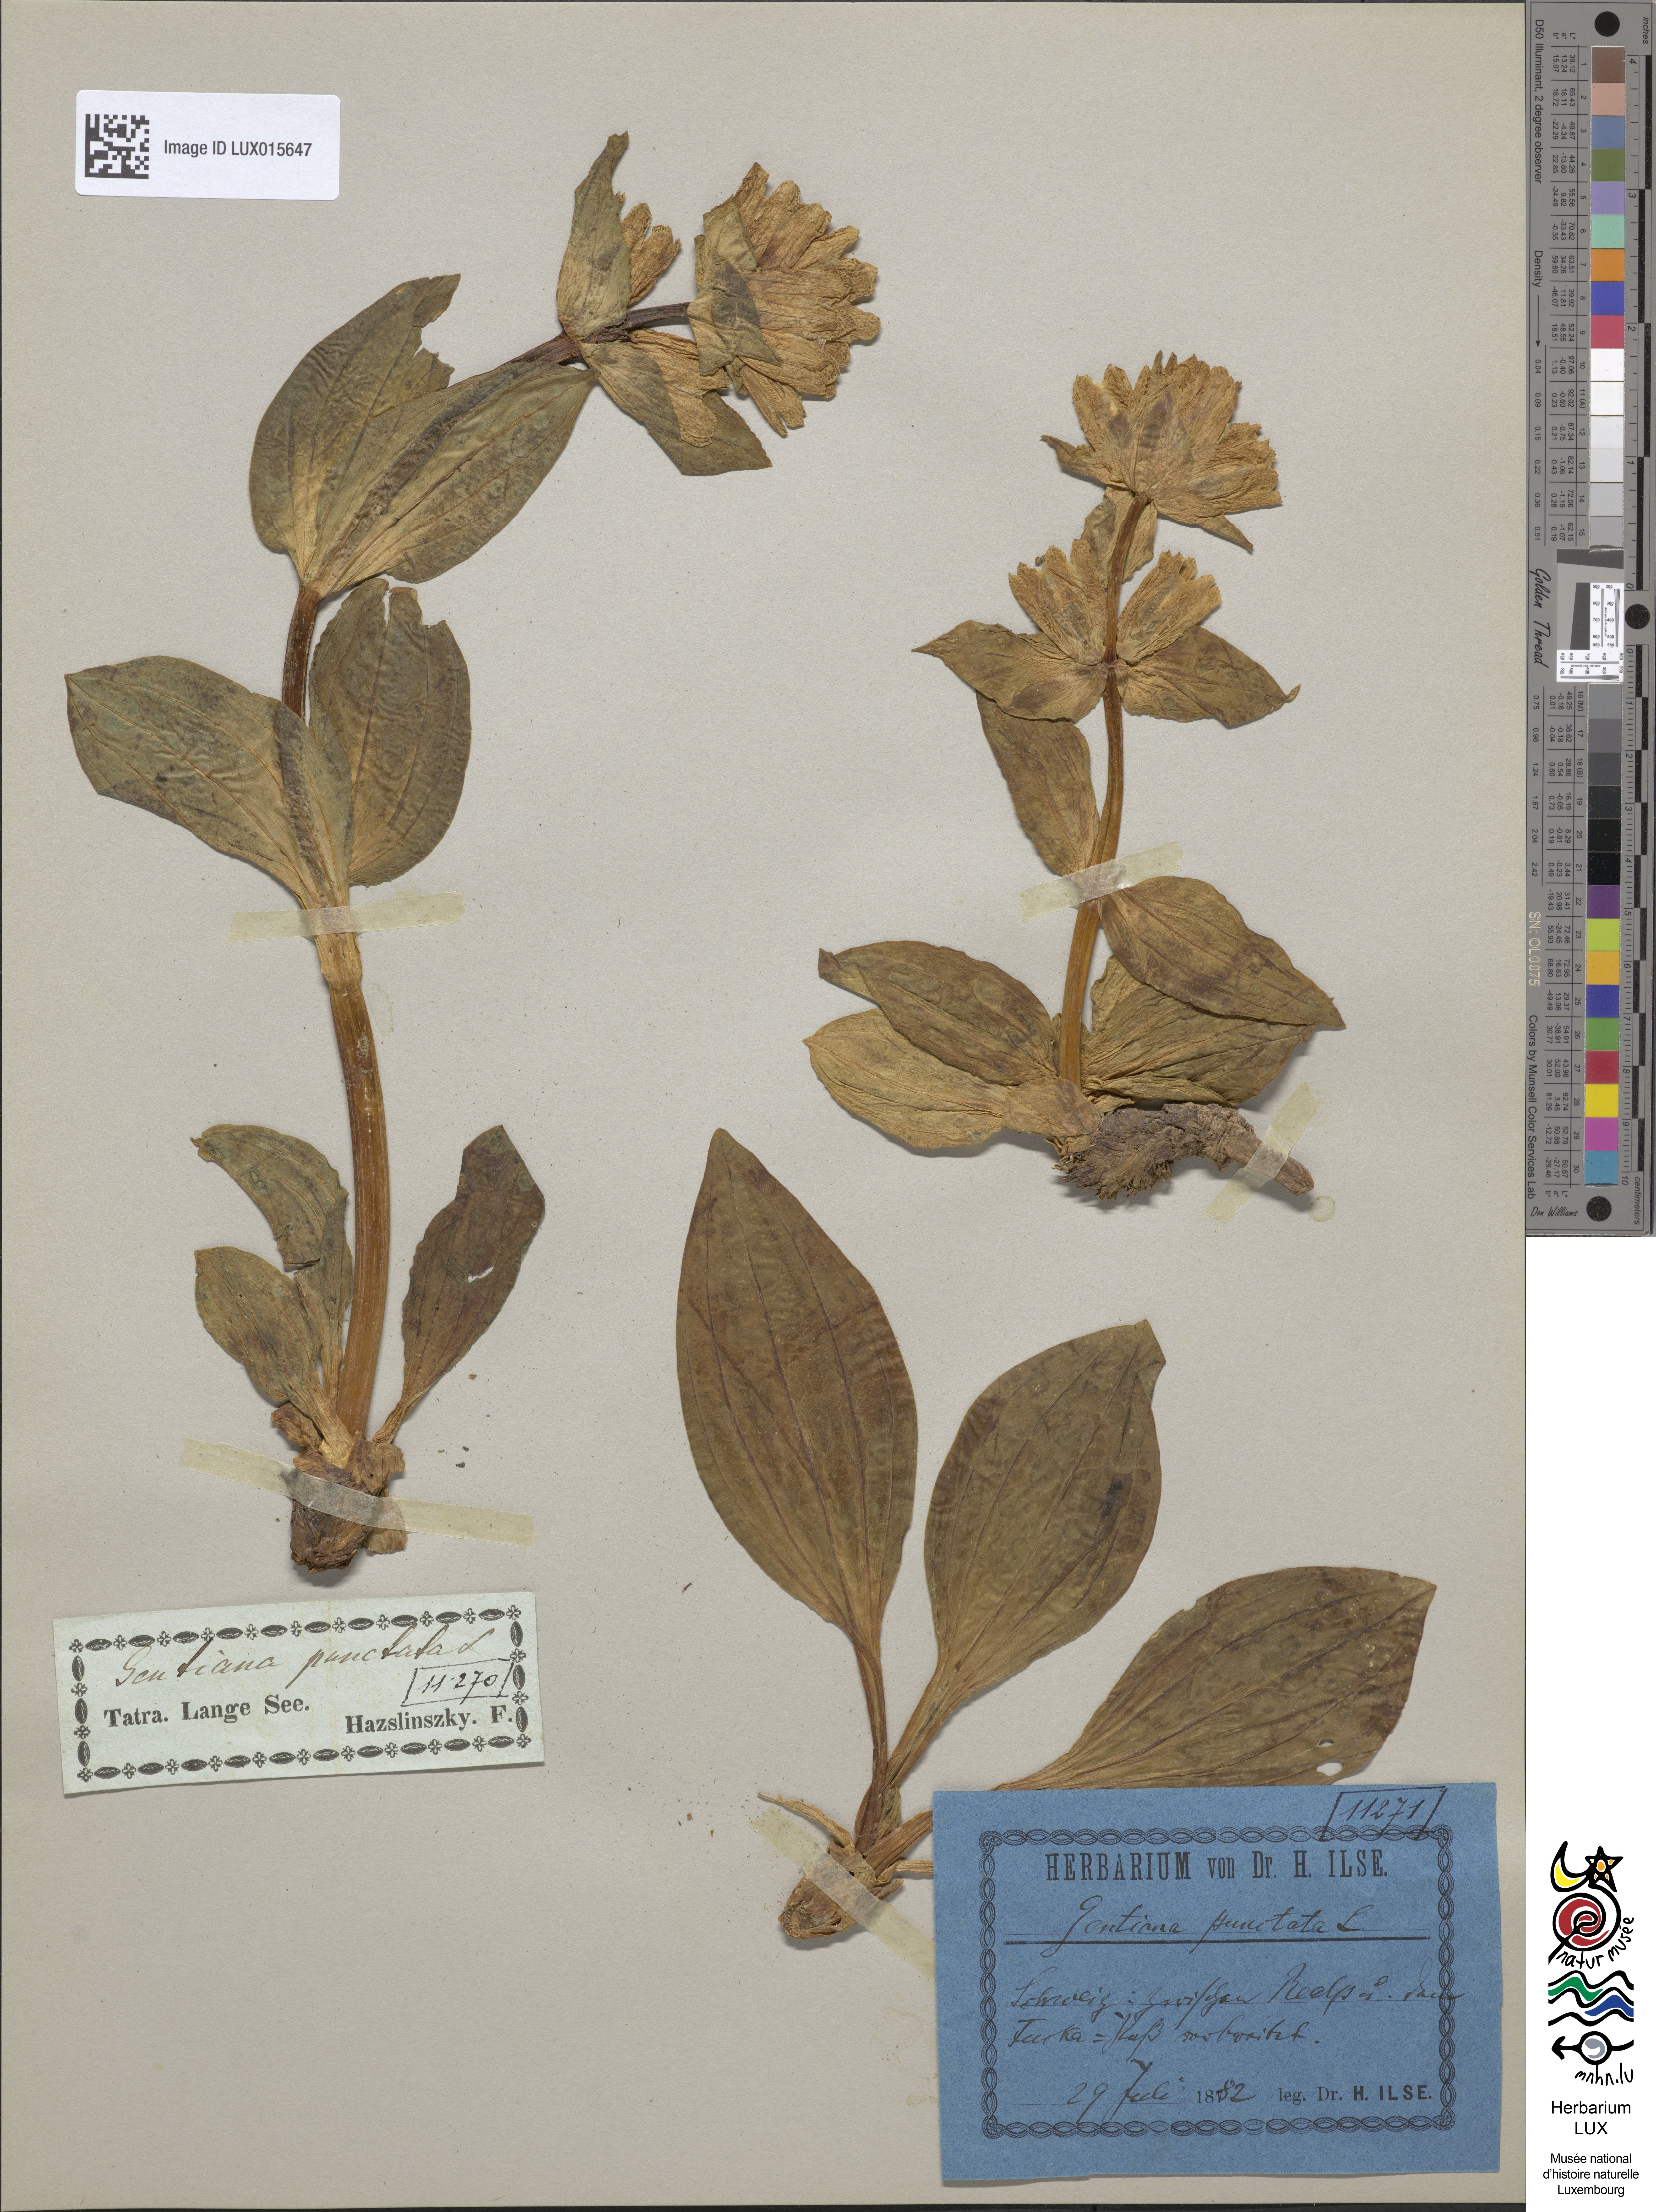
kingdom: Plantae
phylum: Tracheophyta
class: Magnoliopsida
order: Gentianales
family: Gentianaceae
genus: Gentiana
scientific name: Gentiana punctata
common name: Spotted gentian
